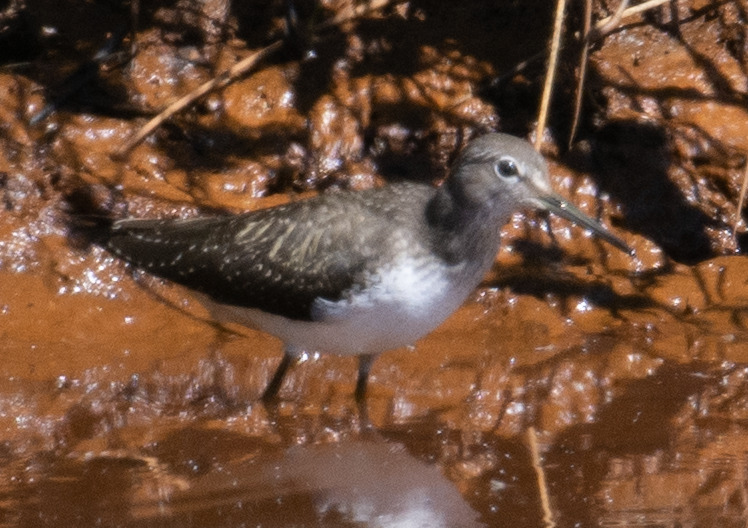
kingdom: Animalia
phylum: Chordata
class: Aves
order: Charadriiformes
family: Scolopacidae
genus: Tringa
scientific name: Tringa ochropus
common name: Svaleklire
